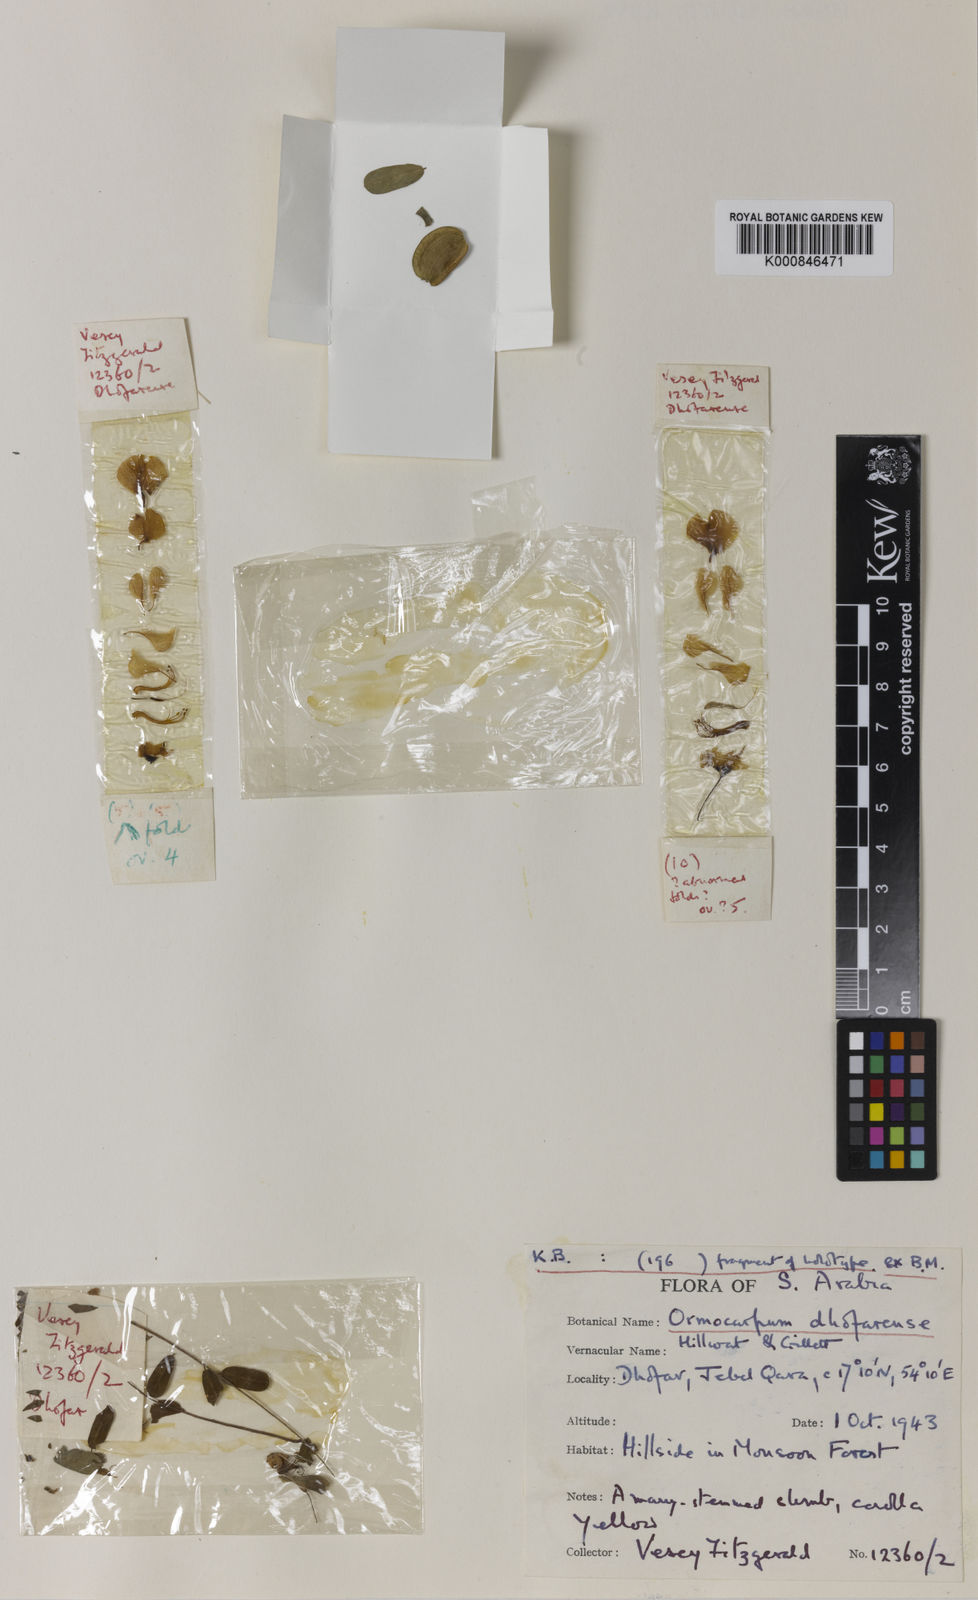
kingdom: Plantae
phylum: Tracheophyta
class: Magnoliopsida
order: Fabales
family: Fabaceae
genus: Zygocarpum
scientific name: Zygocarpum dhofarense
